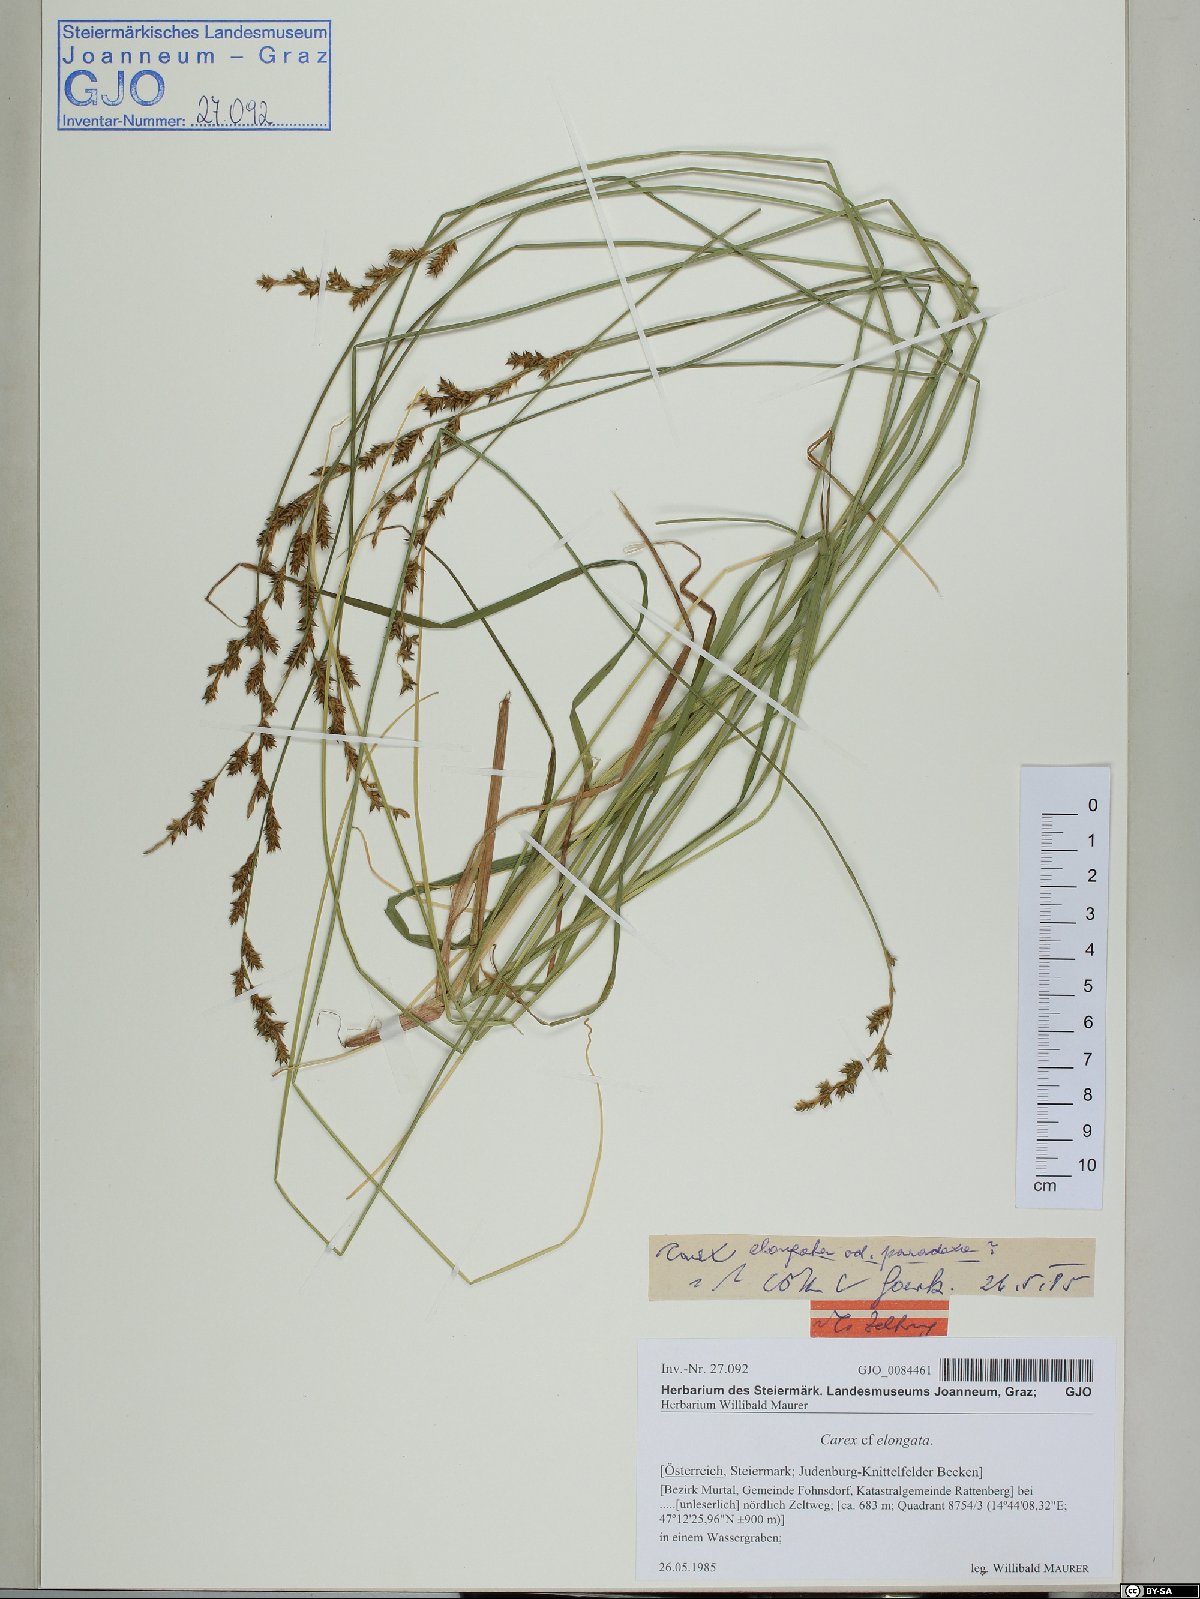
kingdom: Plantae
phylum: Tracheophyta
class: Liliopsida
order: Poales
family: Cyperaceae
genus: Carex
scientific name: Carex elongata
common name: Elongated sedge
